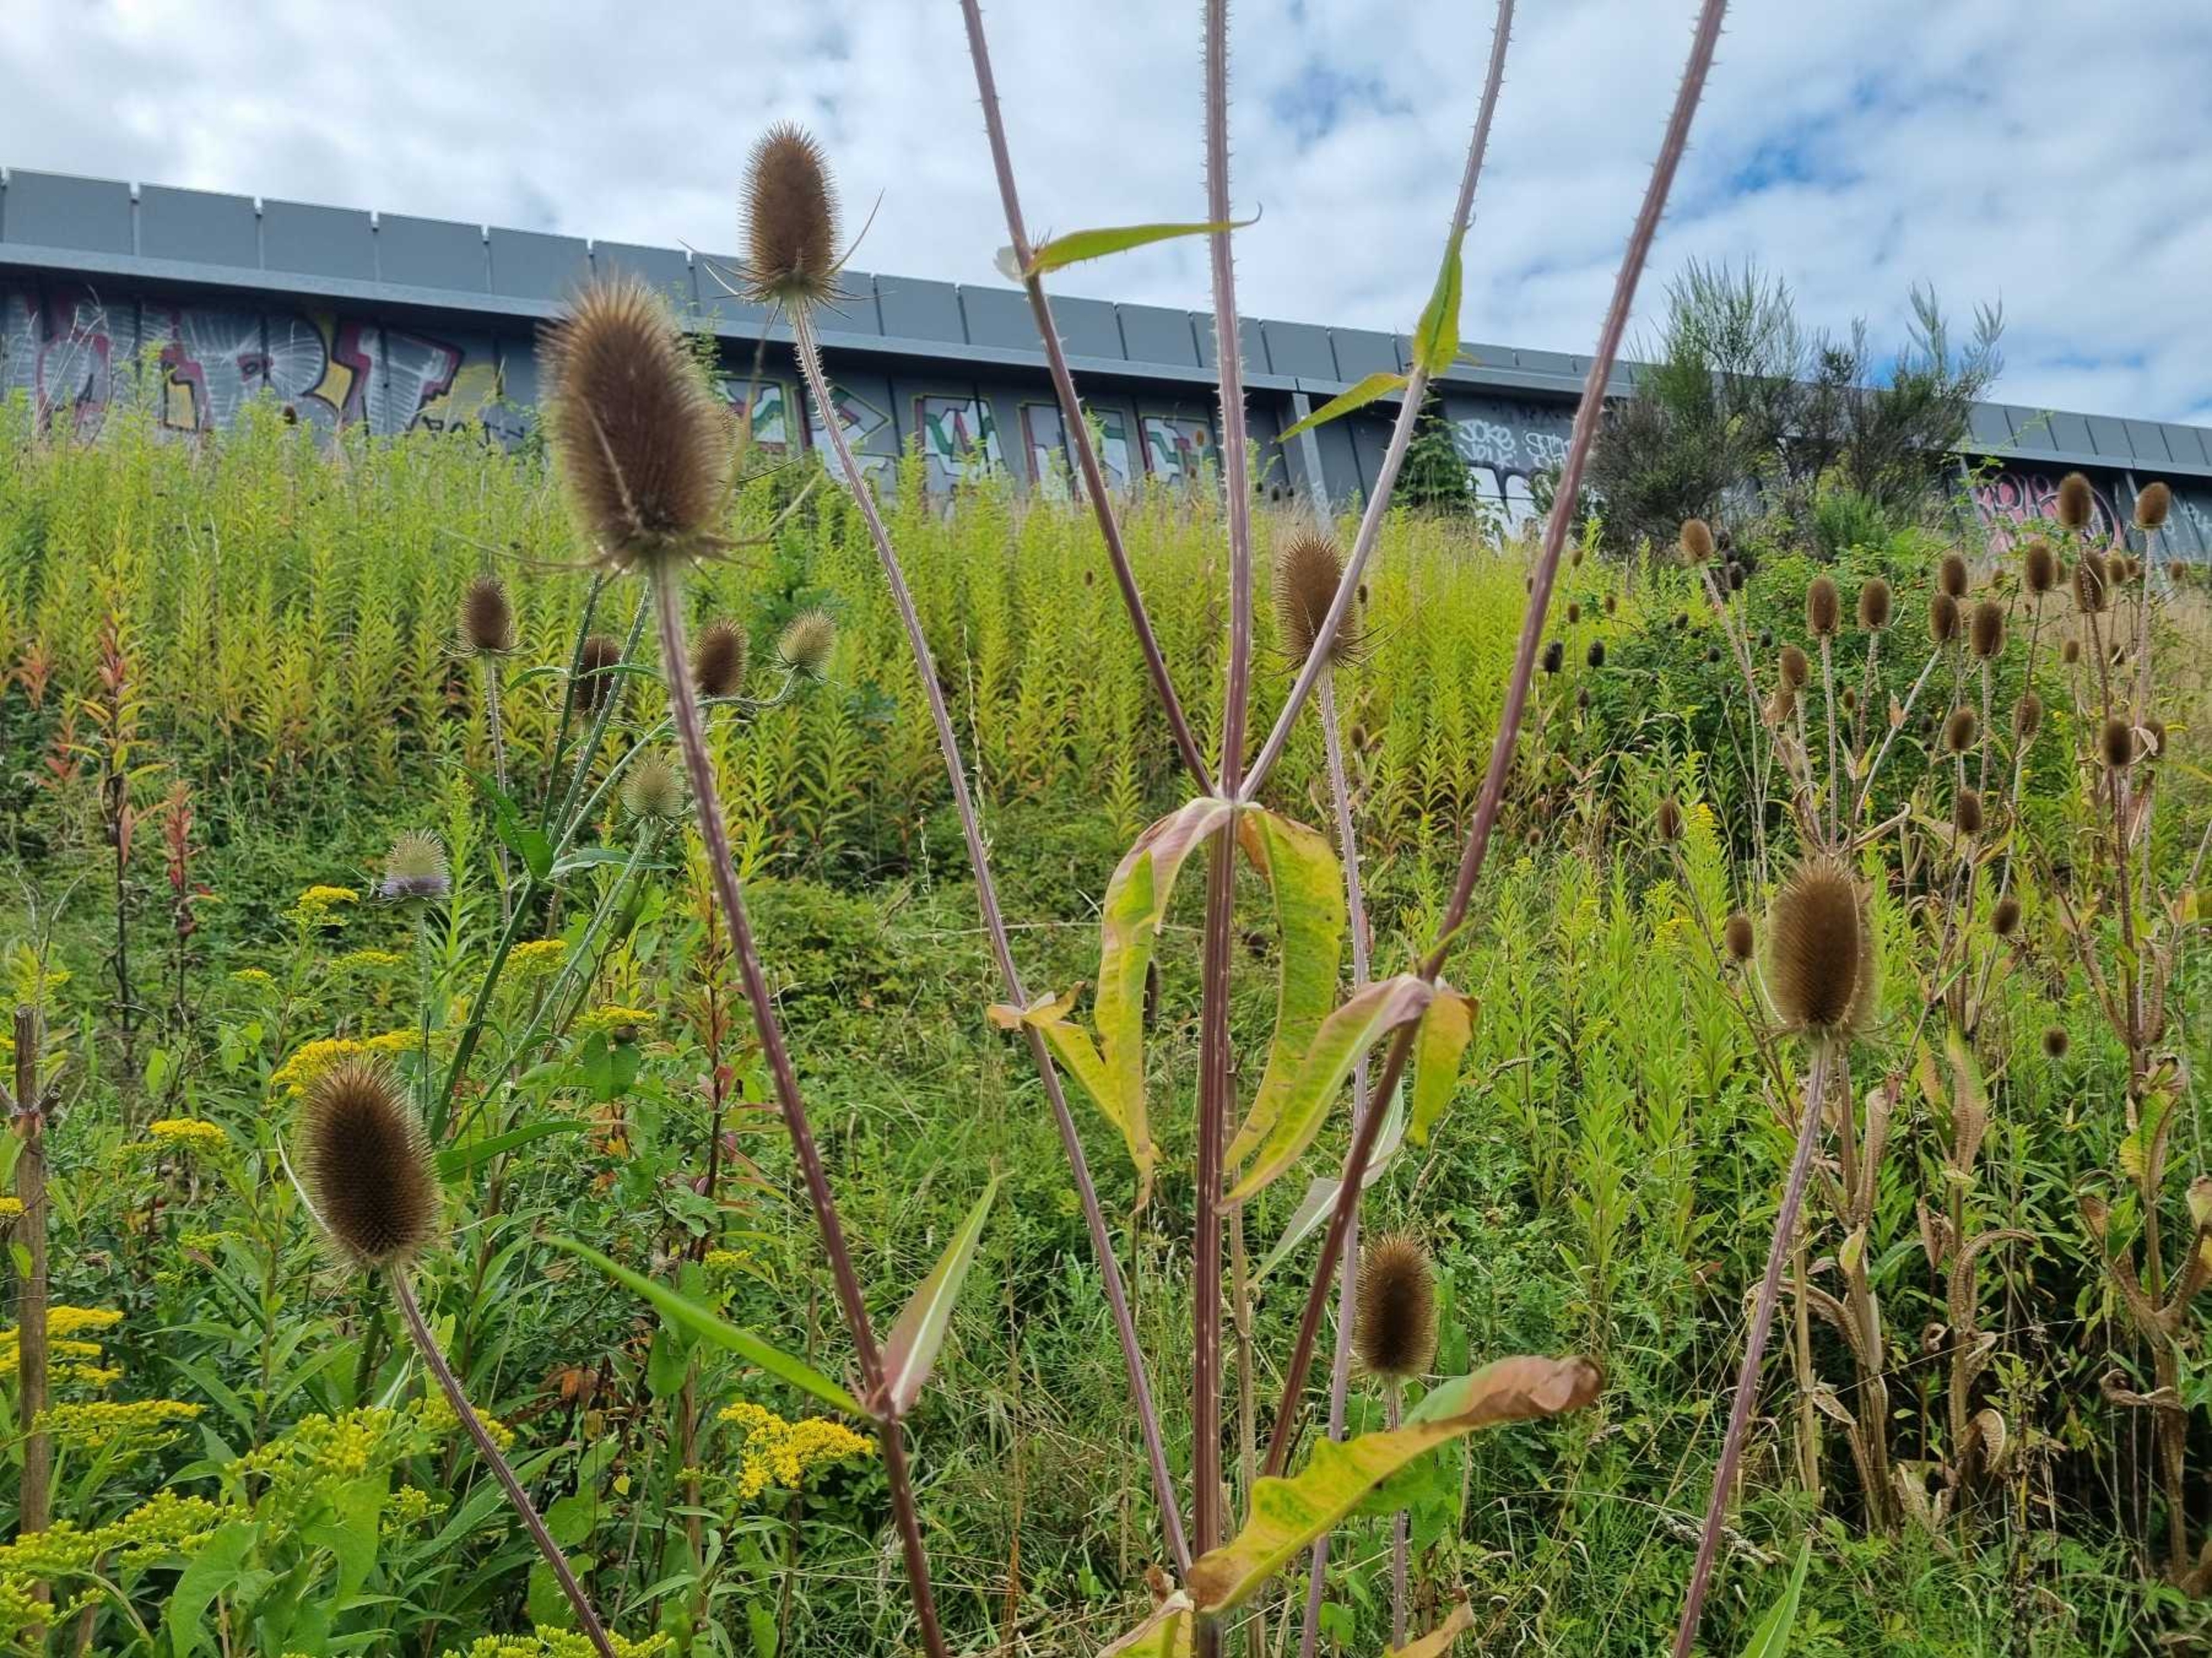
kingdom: Plantae
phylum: Tracheophyta
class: Magnoliopsida
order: Dipsacales
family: Caprifoliaceae
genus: Dipsacus
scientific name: Dipsacus fullonum
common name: Gærde-kartebolle
